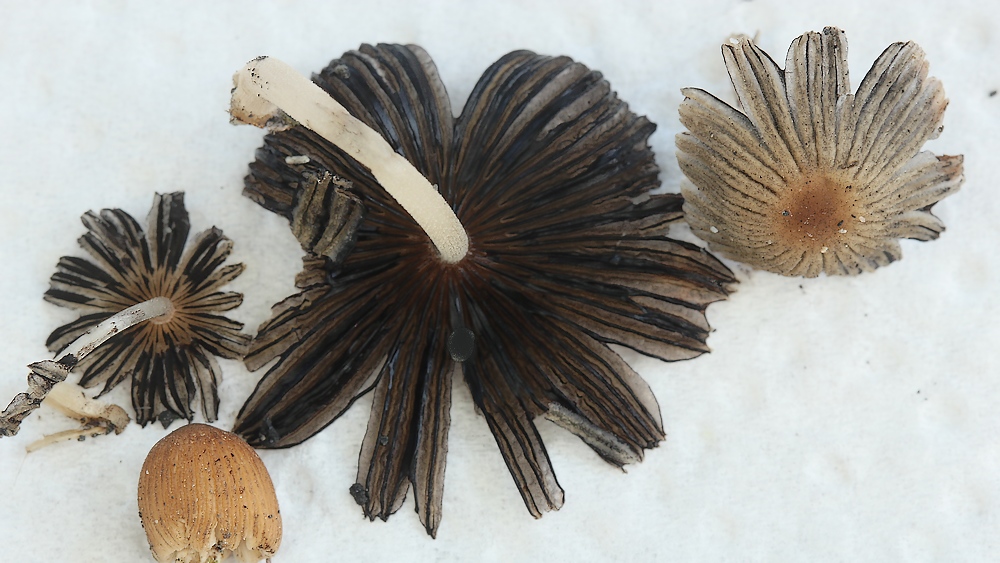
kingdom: Fungi
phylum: Basidiomycota
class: Agaricomycetes
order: Agaricales
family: Psathyrellaceae
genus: Tulosesus
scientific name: Tulosesus angulatus
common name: kul-blækhat
